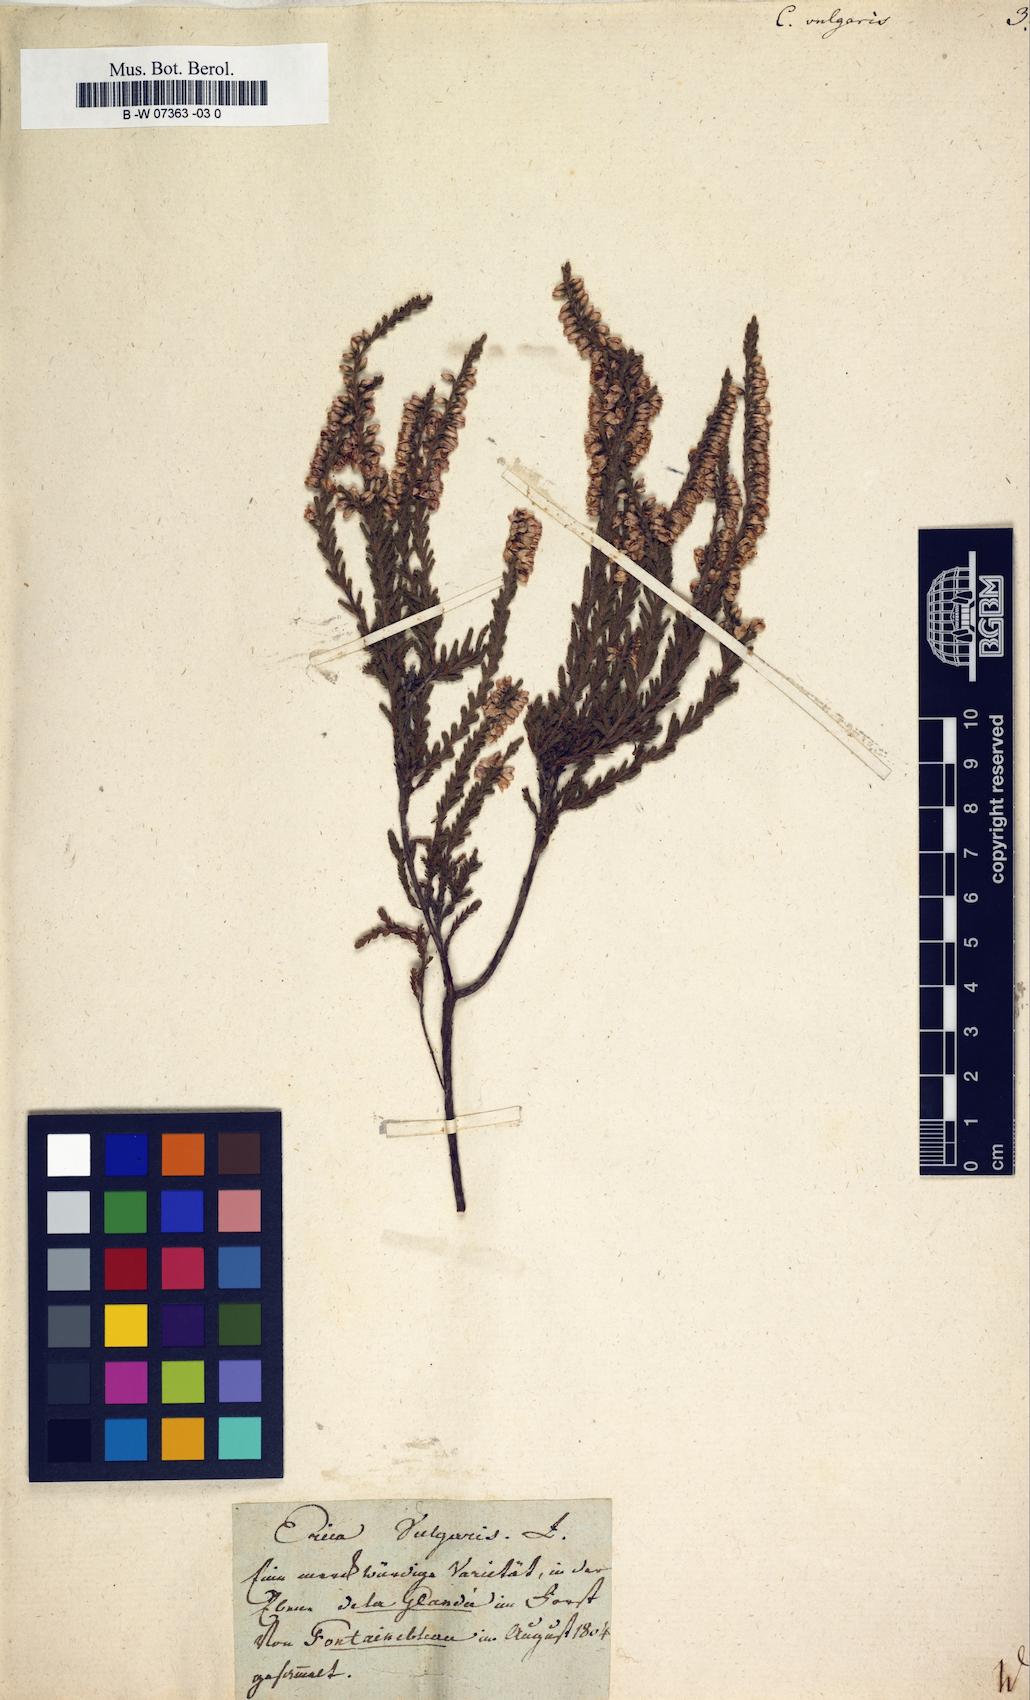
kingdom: Plantae
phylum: Tracheophyta
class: Magnoliopsida
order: Ericales
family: Ericaceae
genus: Calluna
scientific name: Calluna vulgaris
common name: Heather
